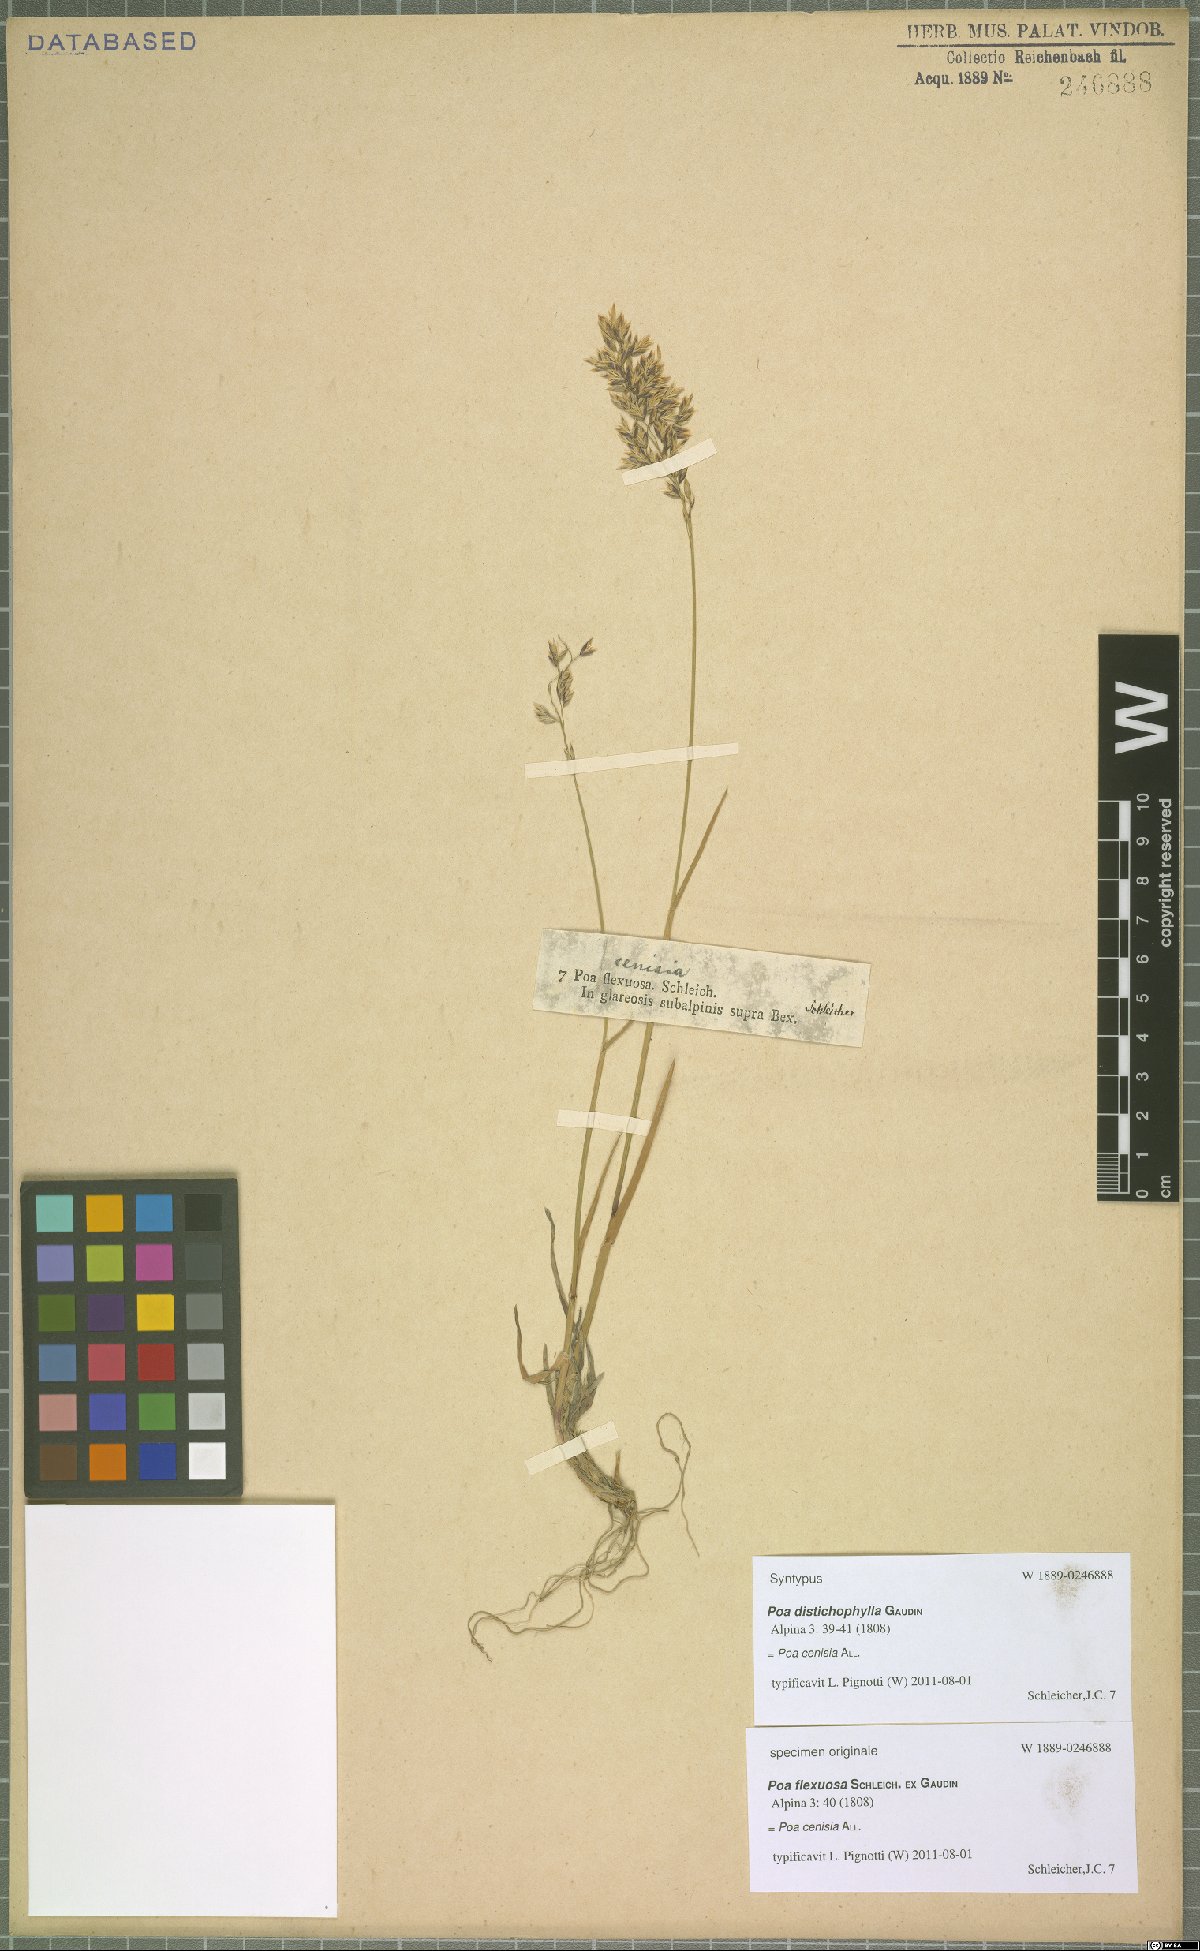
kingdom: Plantae
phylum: Tracheophyta
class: Liliopsida
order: Poales
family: Poaceae
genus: Poa
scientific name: Poa cenisia
